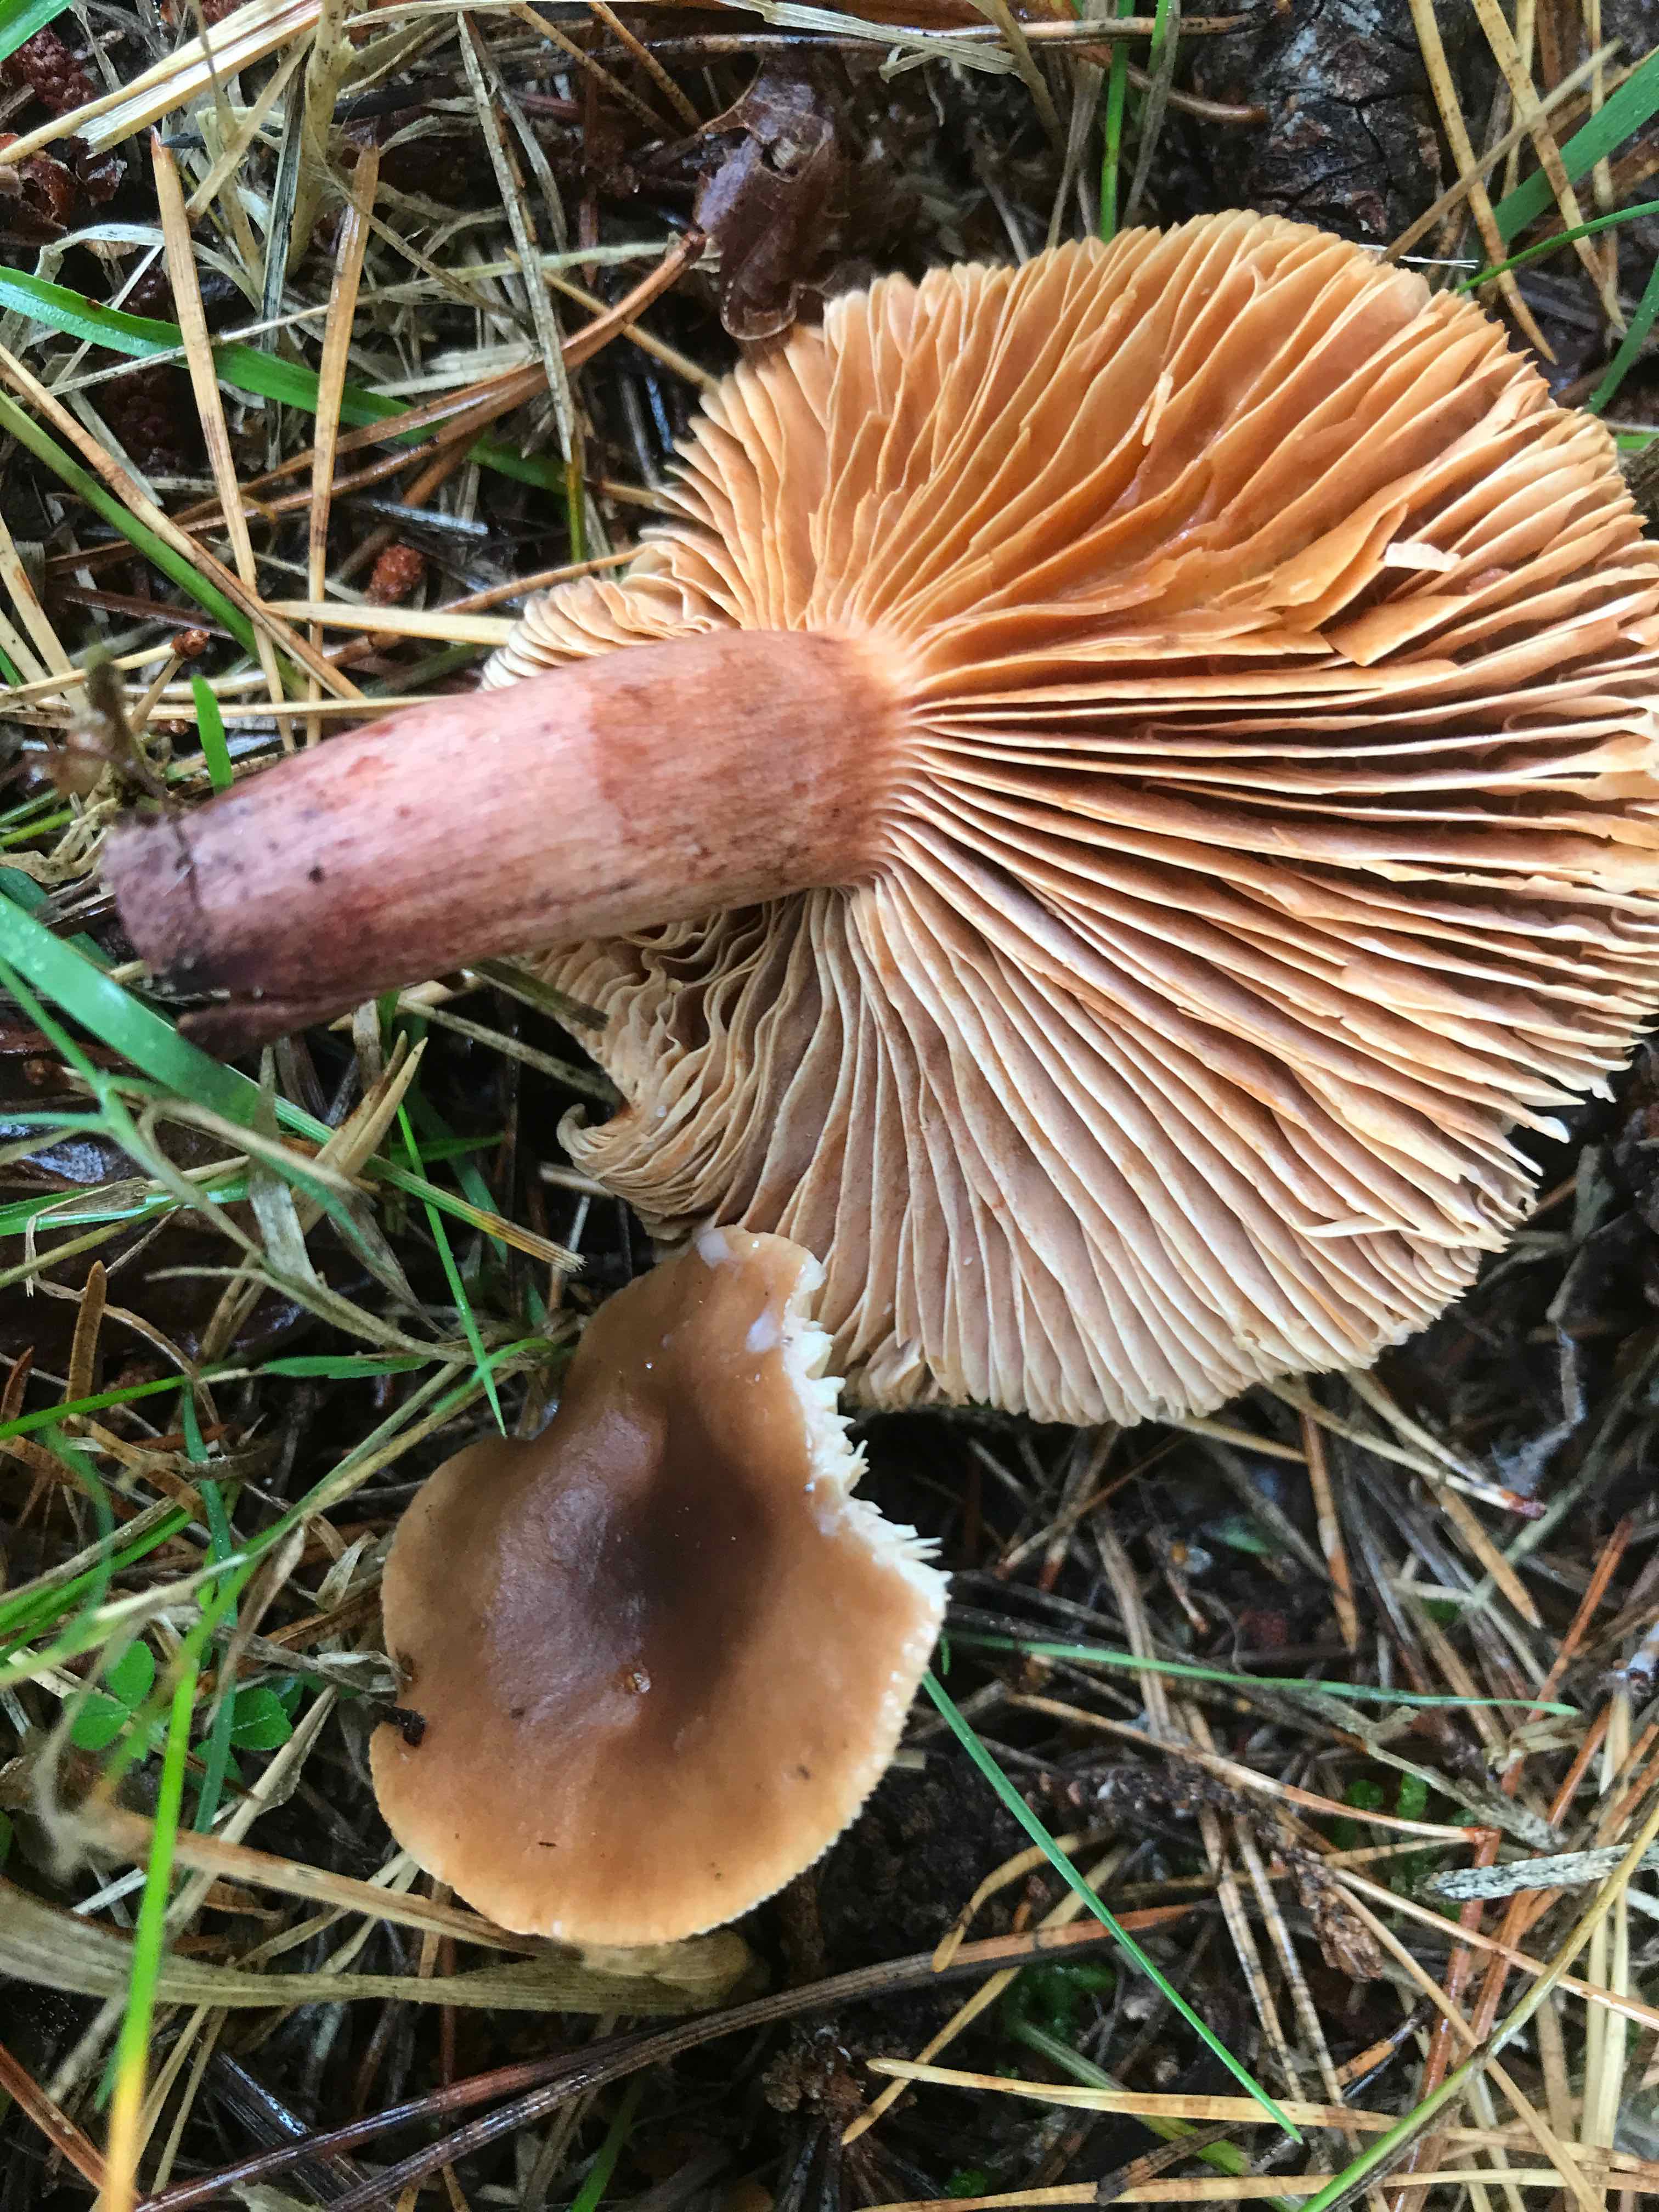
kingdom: Fungi
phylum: Basidiomycota
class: Agaricomycetes
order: Russulales
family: Russulaceae
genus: Lactarius
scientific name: Lactarius hepaticus
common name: leverbrun mælkehat
